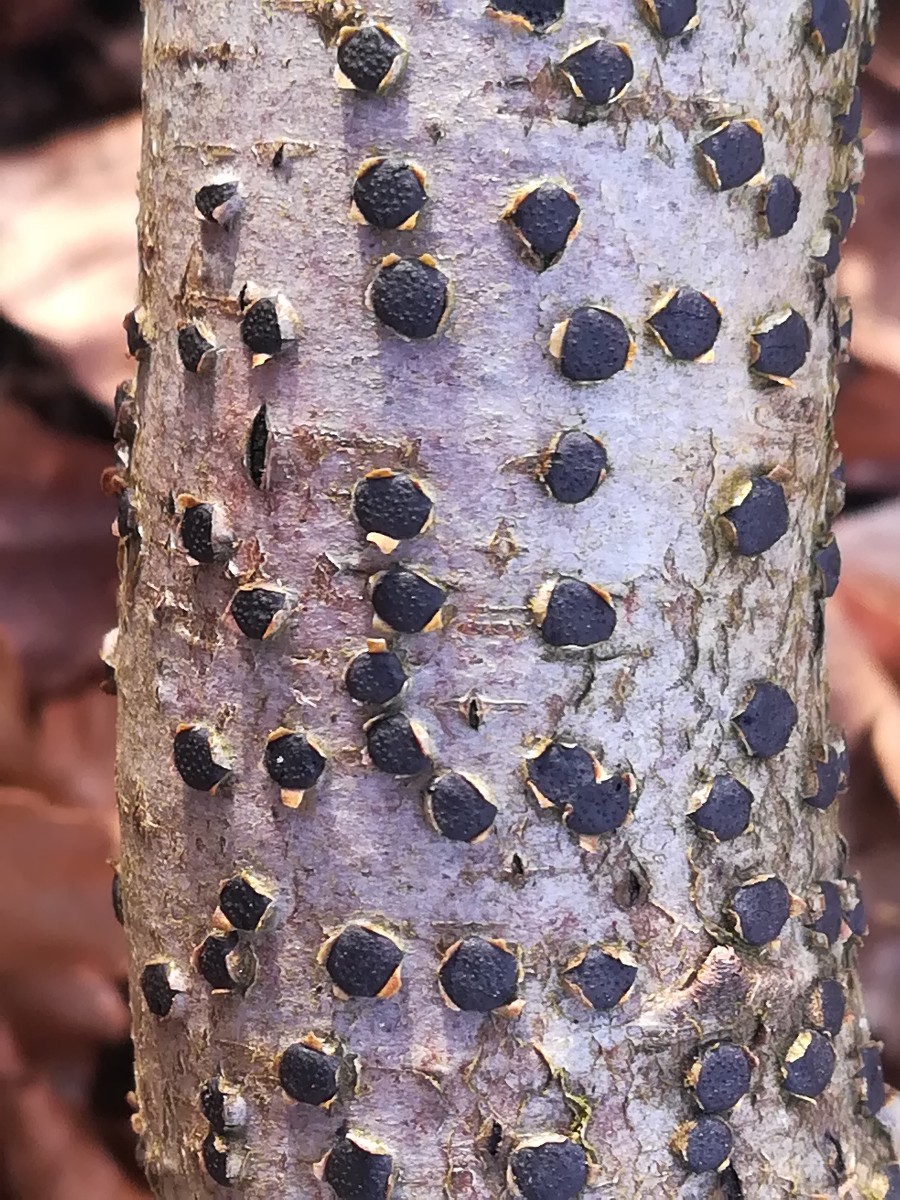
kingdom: Fungi
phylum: Ascomycota
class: Sordariomycetes
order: Xylariales
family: Diatrypaceae
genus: Diatrype
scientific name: Diatrype disciformis
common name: kant-kulskorpe
